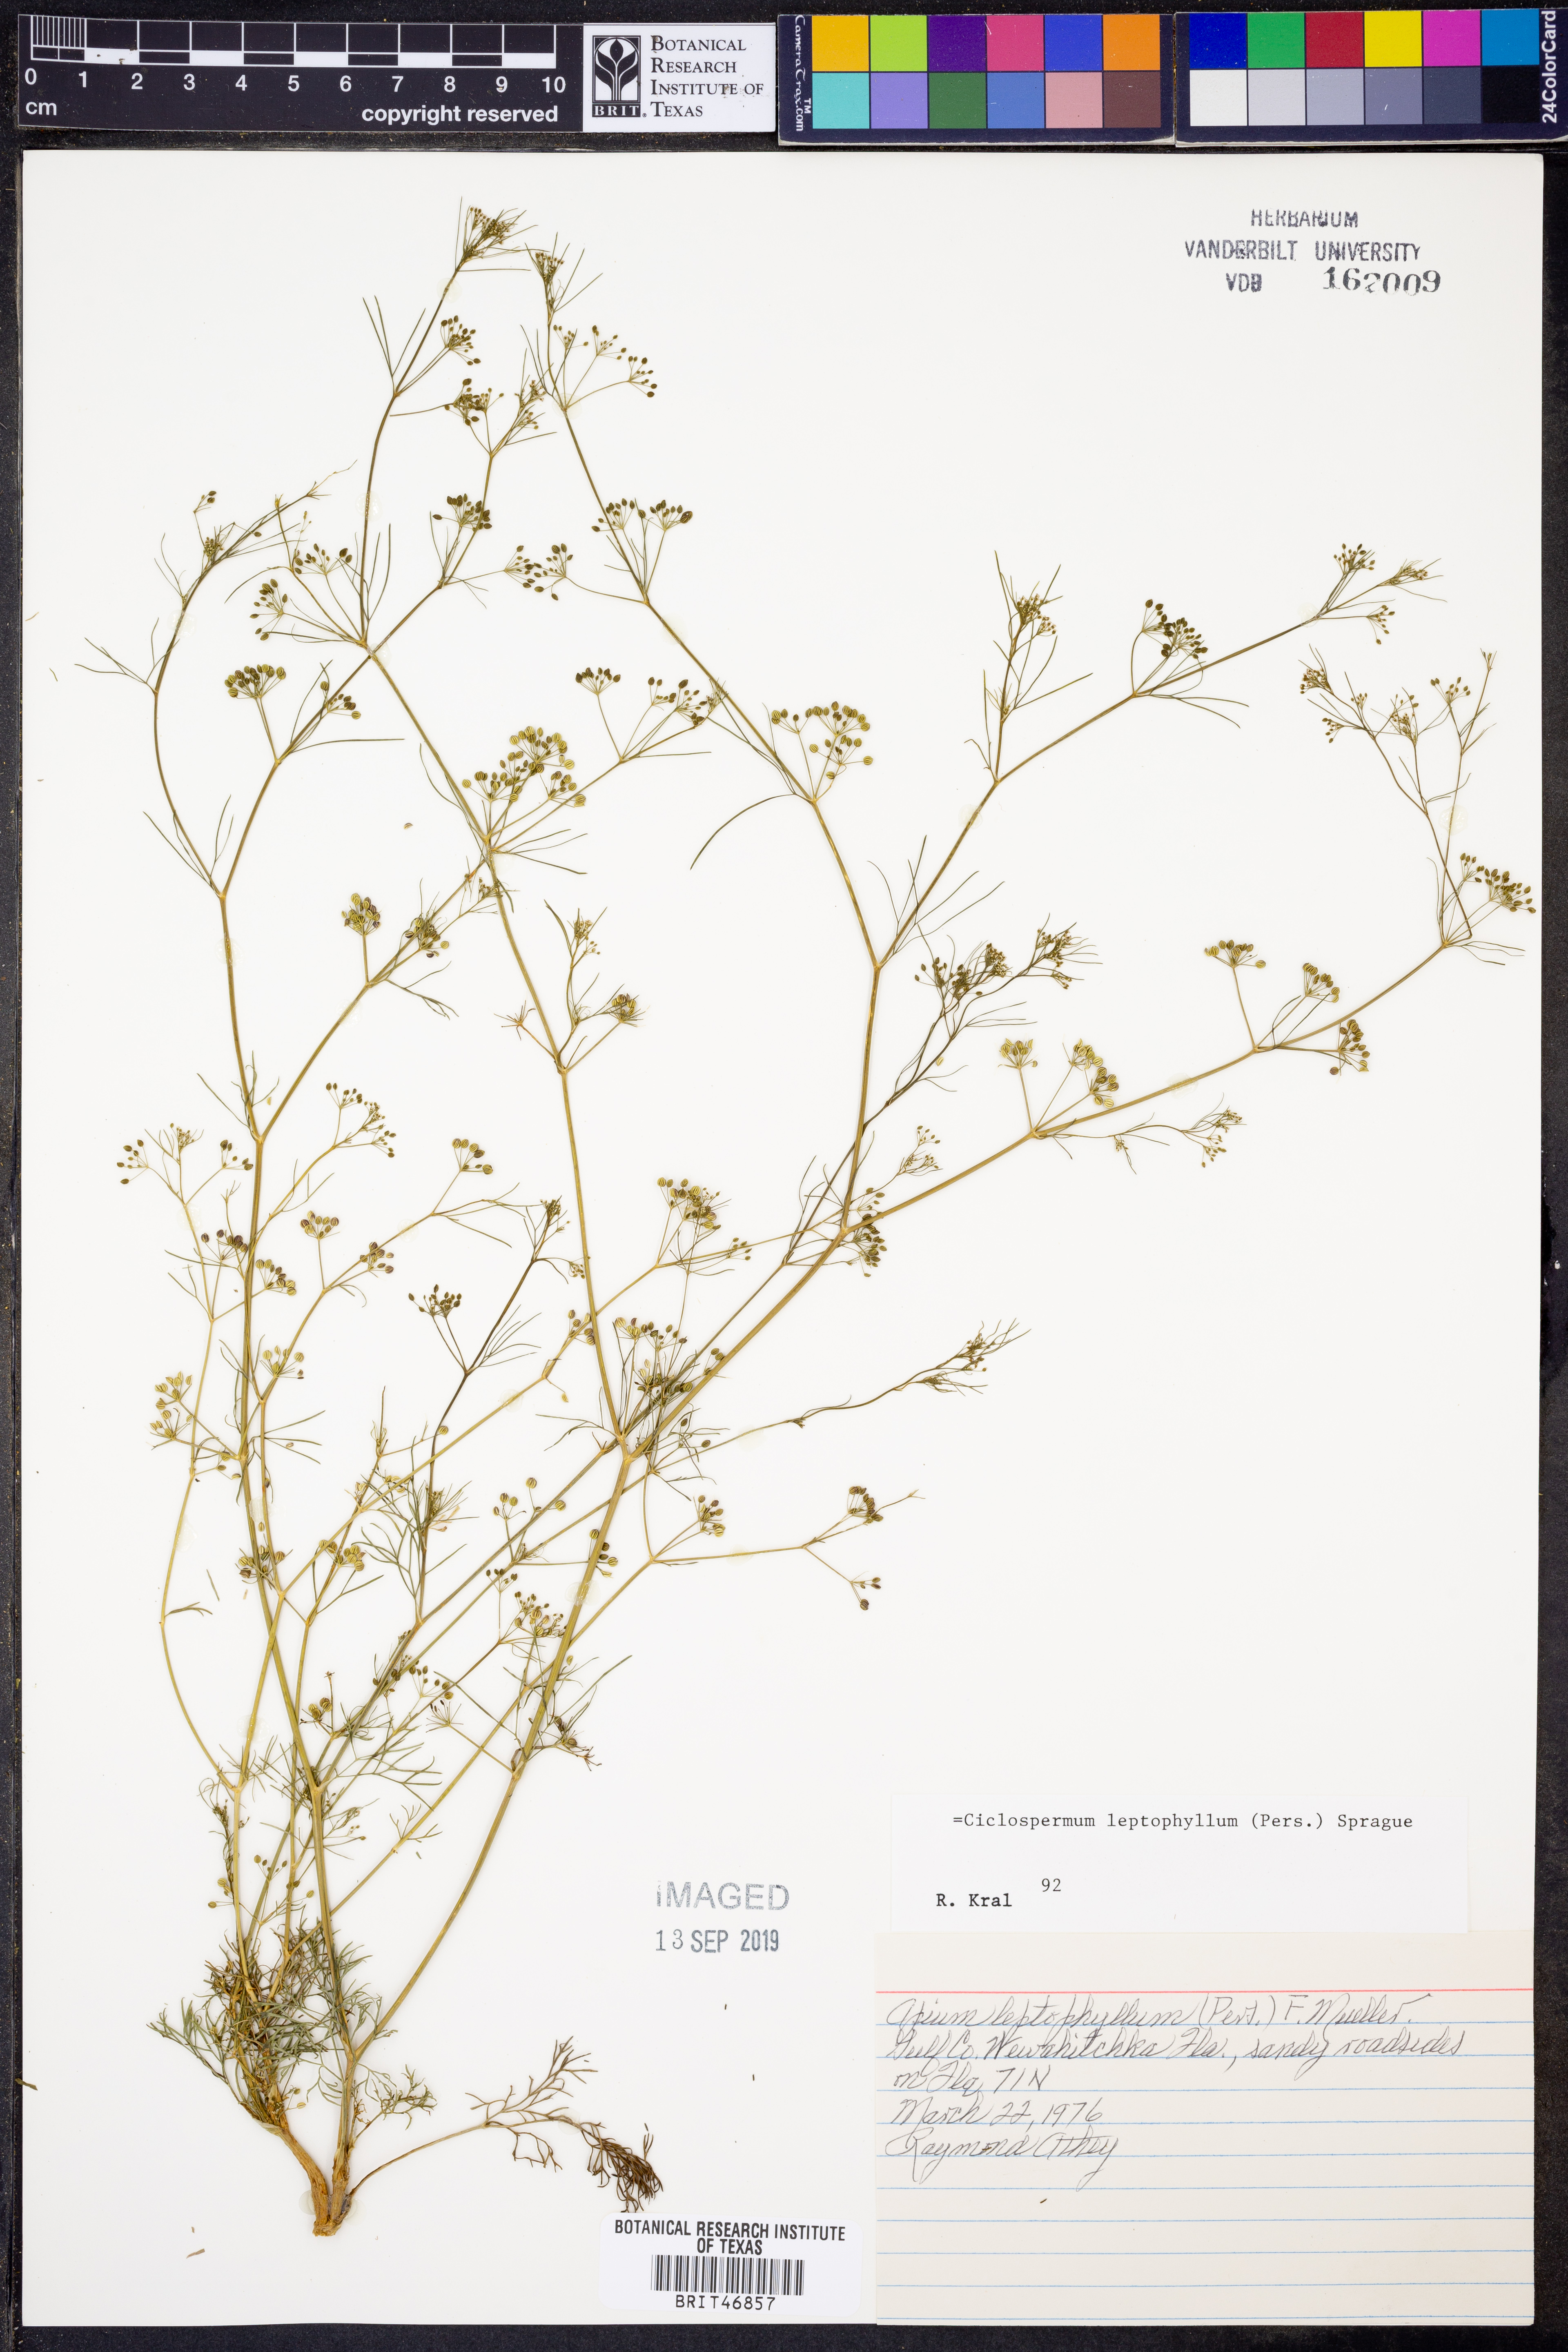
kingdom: Plantae
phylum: Tracheophyta
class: Magnoliopsida
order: Apiales
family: Apiaceae
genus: Cyclospermum
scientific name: Cyclospermum leptophyllum
